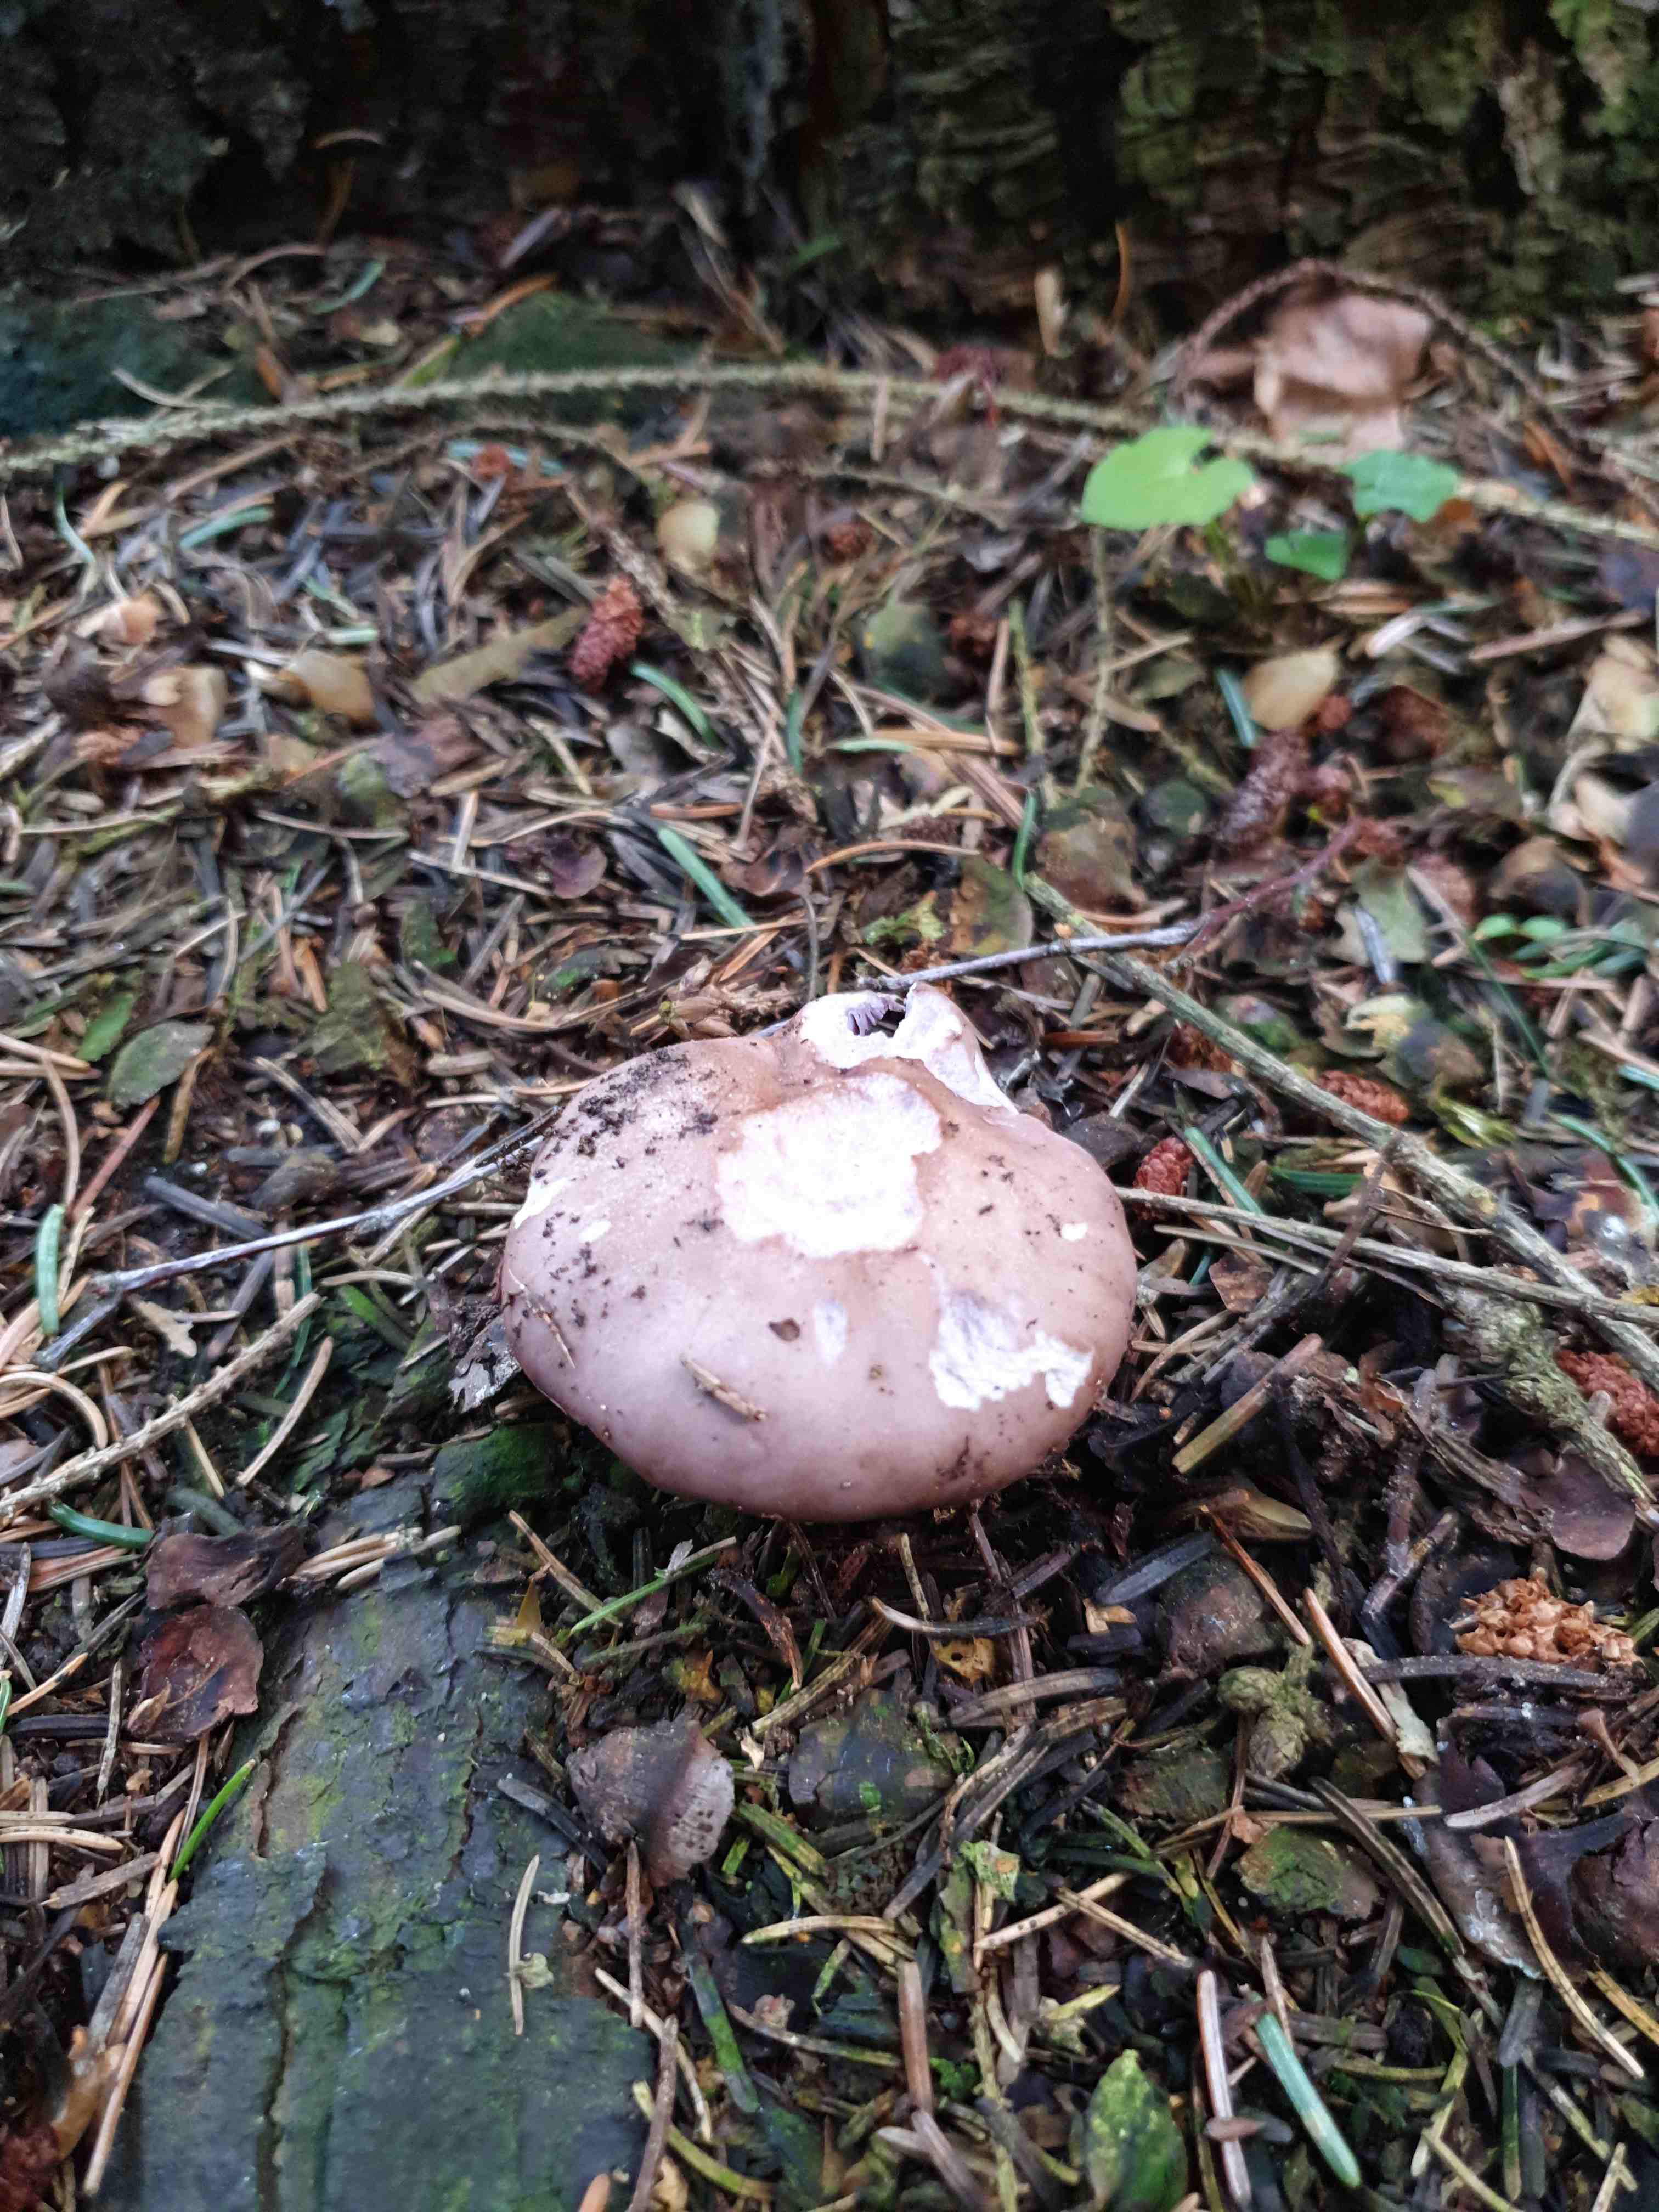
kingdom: Fungi
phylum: Basidiomycota
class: Agaricomycetes
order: Agaricales
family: Tricholomataceae
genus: Lepista
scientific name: Lepista nuda
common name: violet hekseringshat
